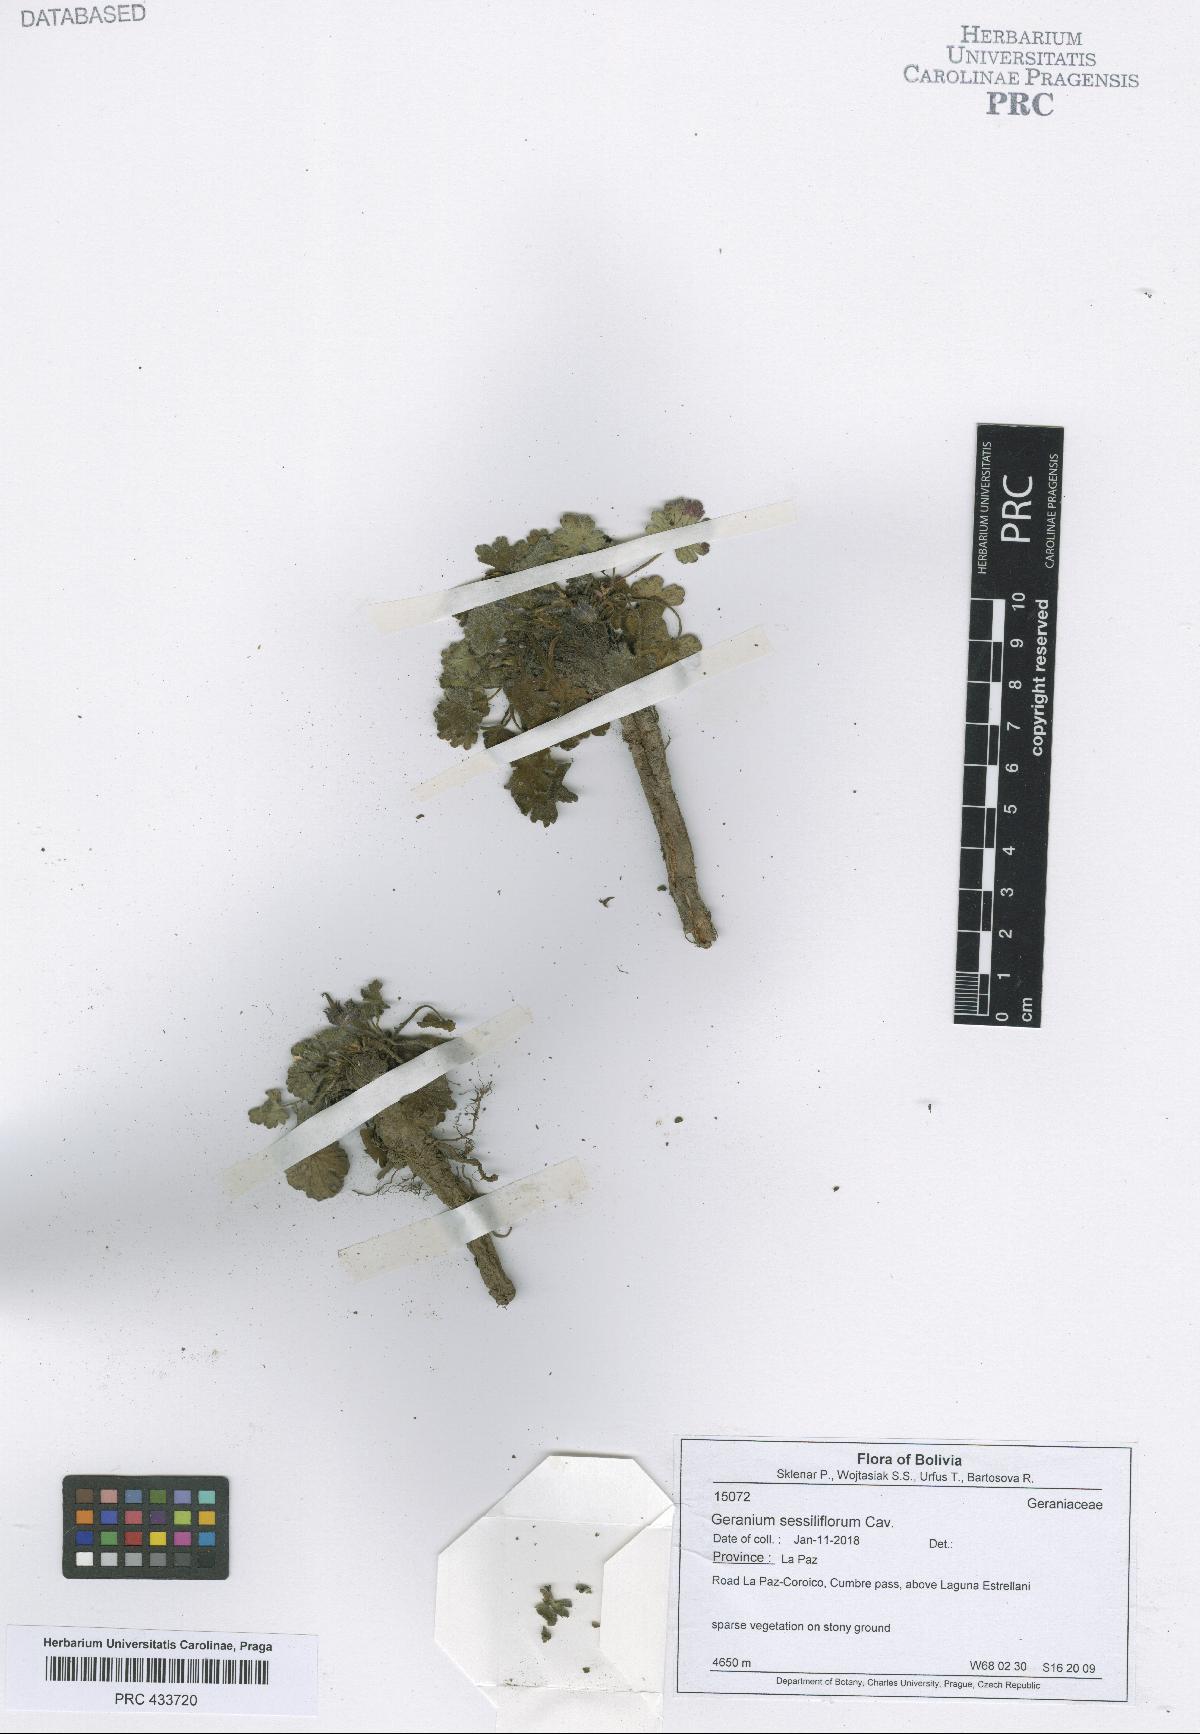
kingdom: Plantae
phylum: Tracheophyta
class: Magnoliopsida
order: Geraniales
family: Geraniaceae
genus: Geranium
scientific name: Geranium sessiliflorum
